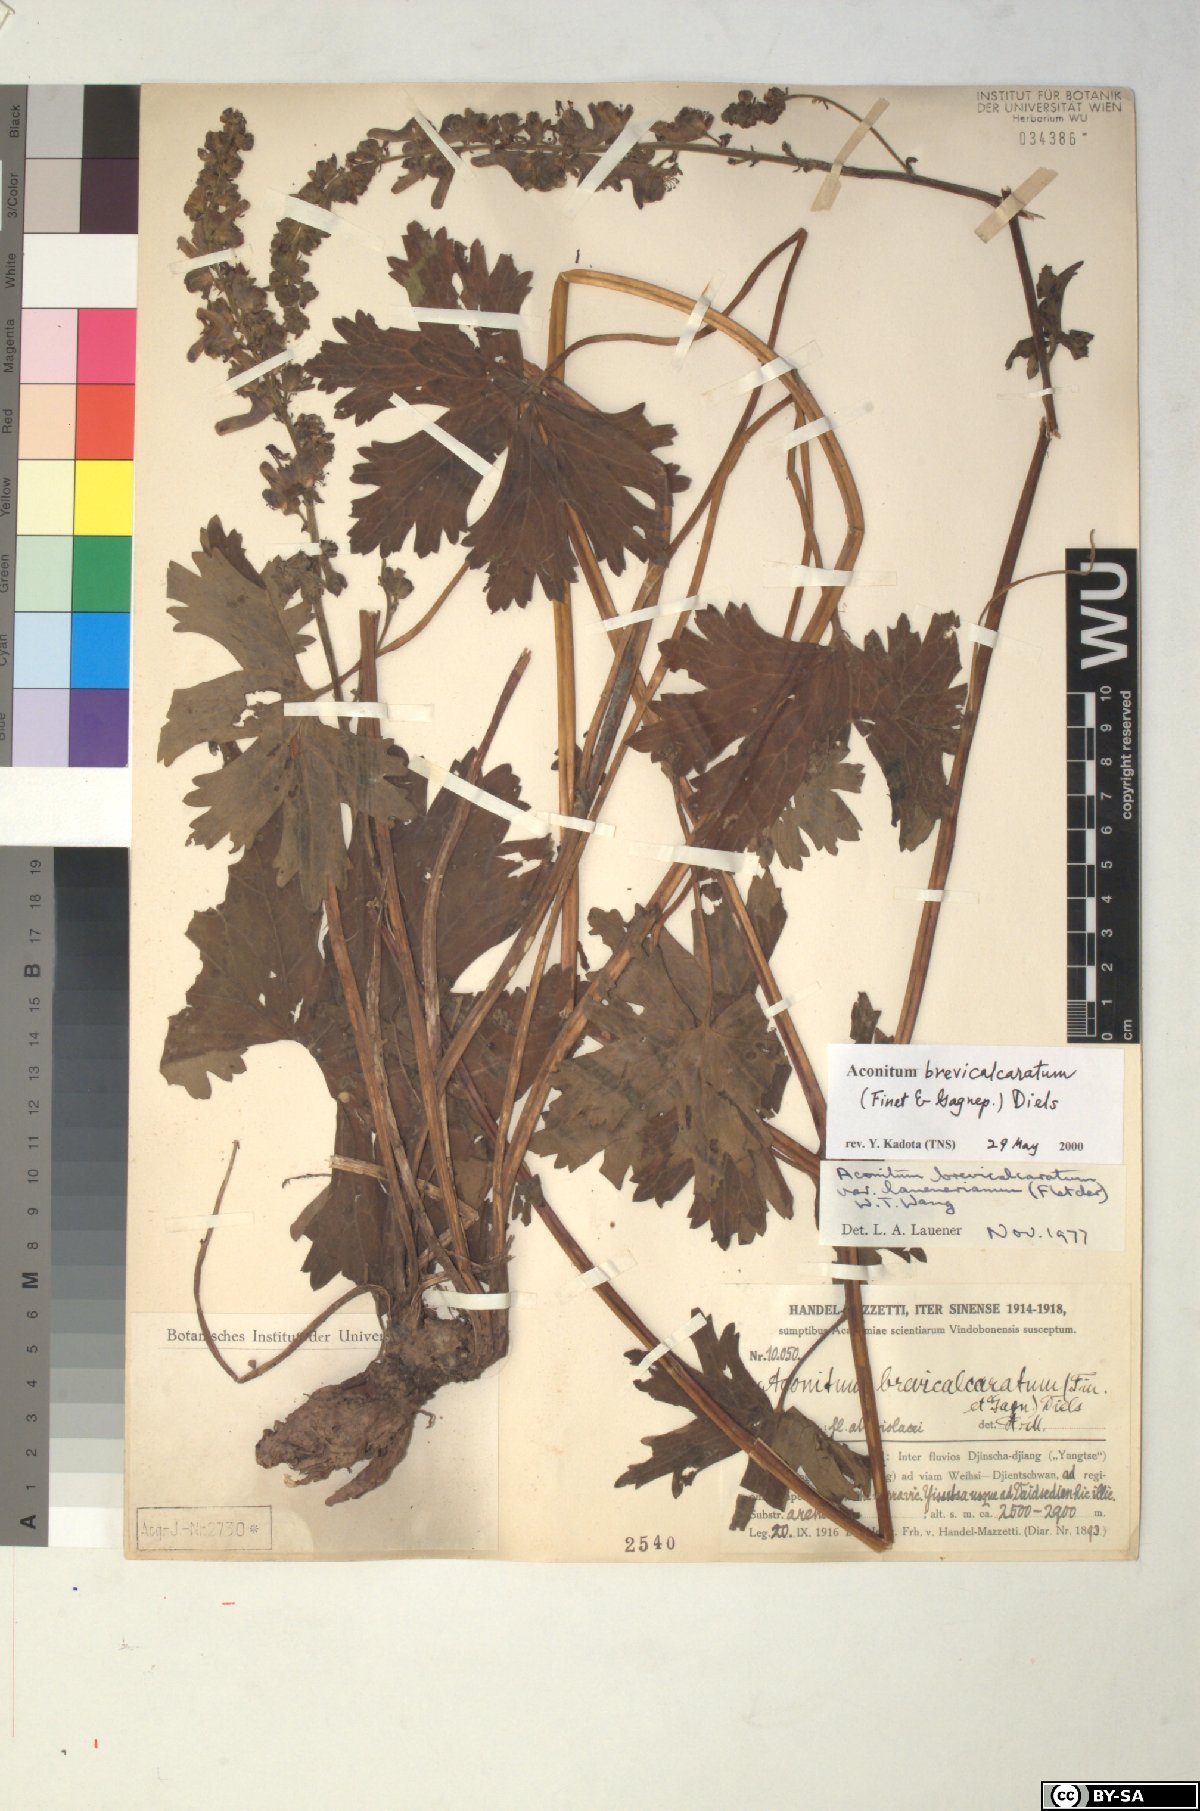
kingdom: Plantae
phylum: Tracheophyta
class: Magnoliopsida
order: Ranunculales
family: Ranunculaceae
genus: Aconitum
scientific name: Aconitum brevicalcaratum
